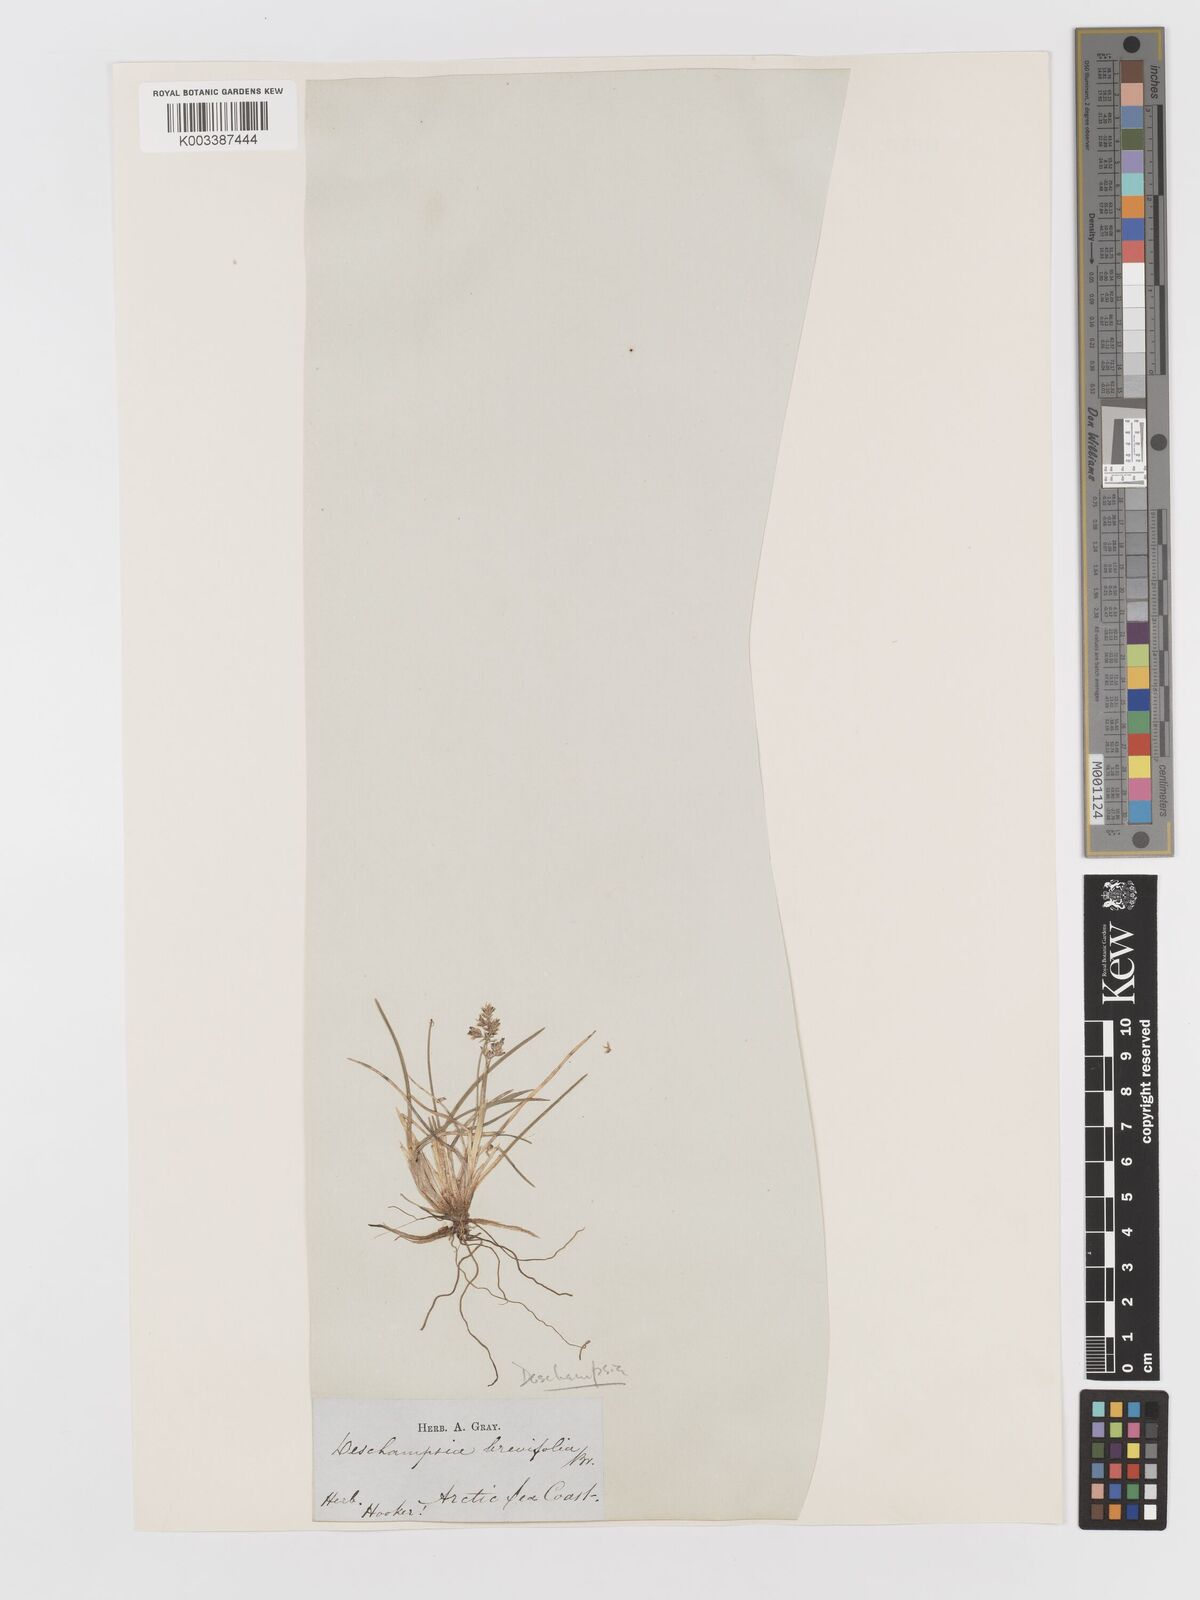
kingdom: Plantae
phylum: Tracheophyta
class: Liliopsida
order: Poales
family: Poaceae
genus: Deschampsia
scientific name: Deschampsia
